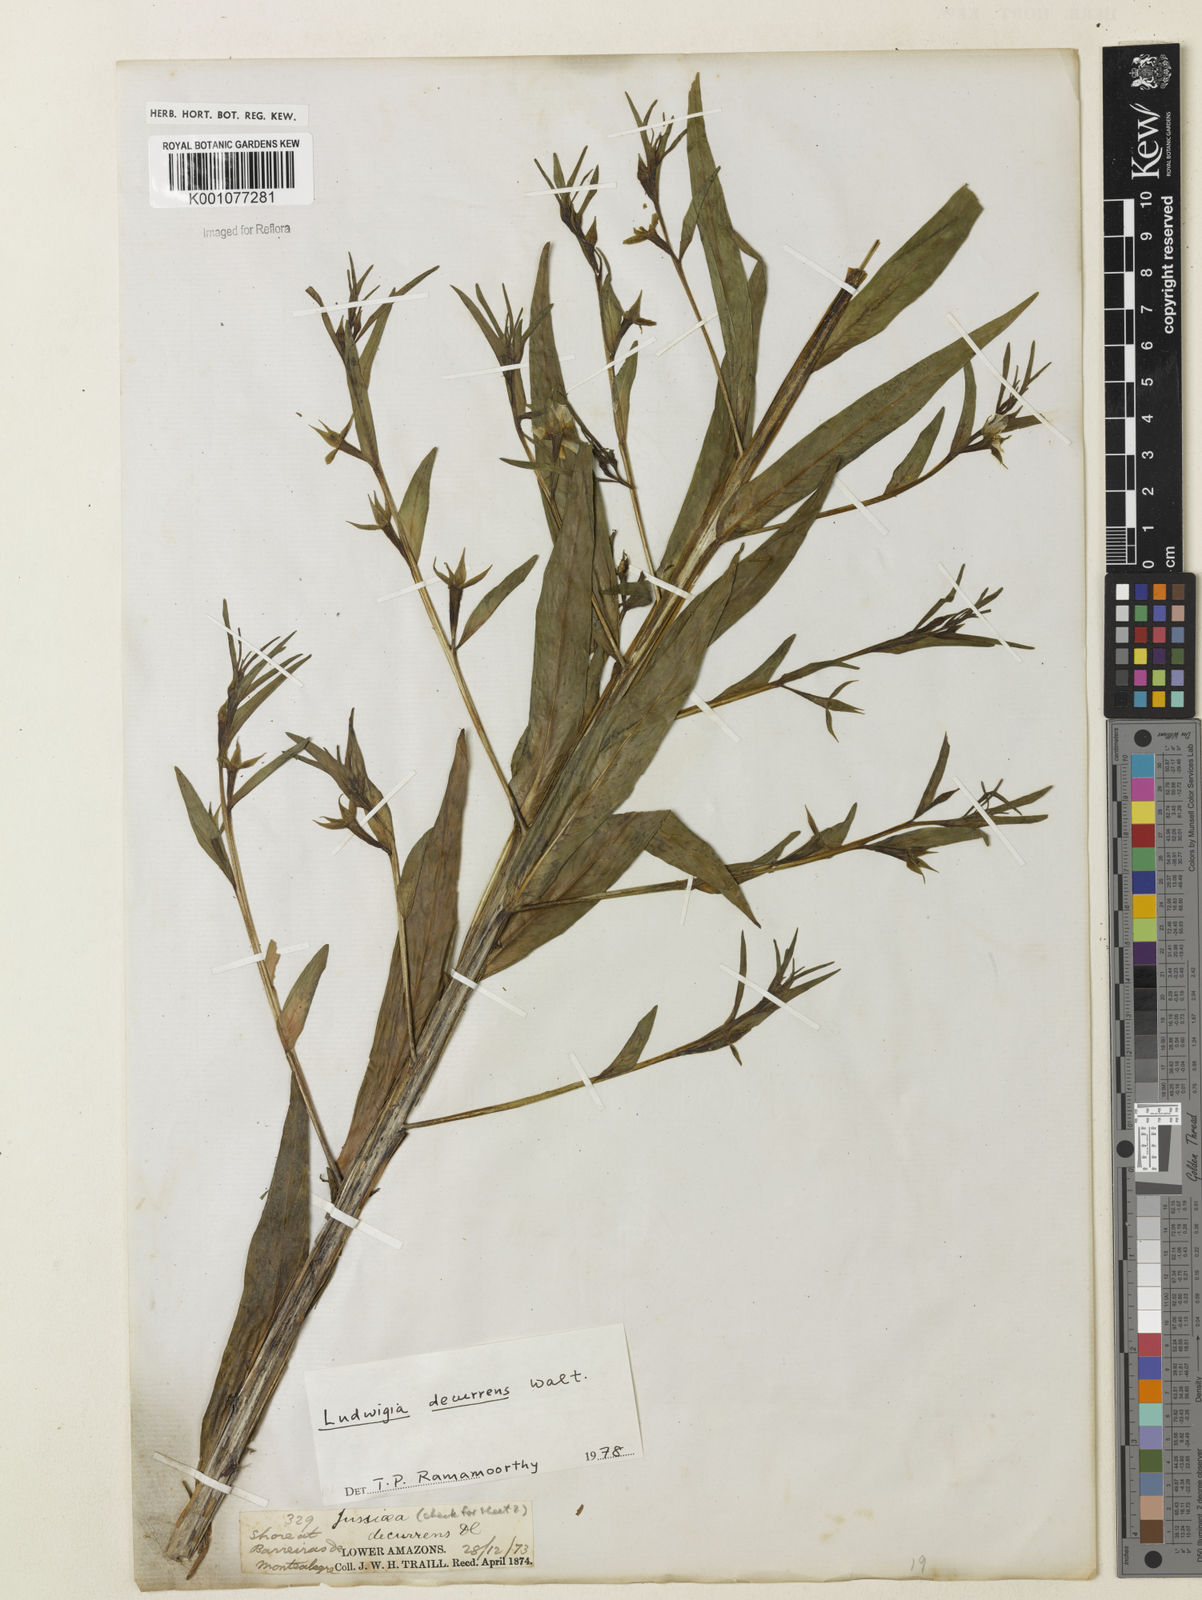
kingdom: Plantae
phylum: Tracheophyta
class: Magnoliopsida
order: Myrtales
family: Onagraceae
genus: Ludwigia
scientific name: Ludwigia decurrens
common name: Winged water-primrose
